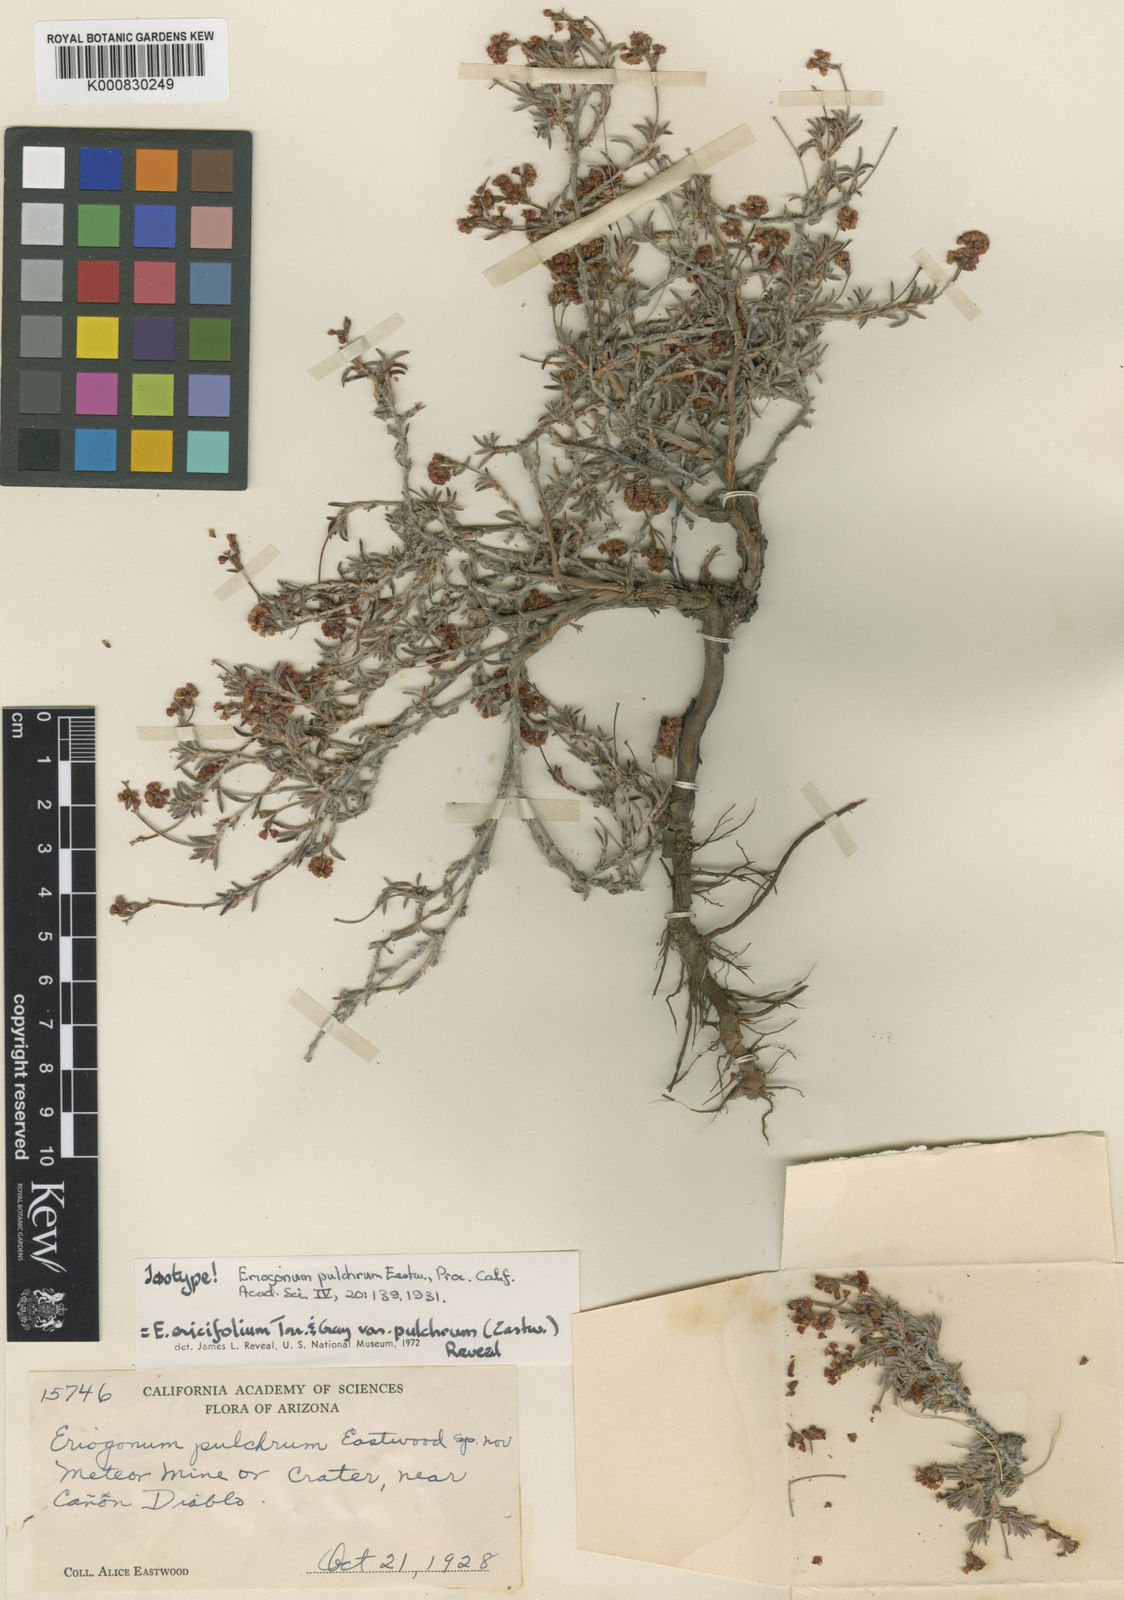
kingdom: Plantae
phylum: Tracheophyta
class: Magnoliopsida
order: Caryophyllales
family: Polygonaceae
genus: Eriogonum
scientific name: Eriogonum pulchrum
